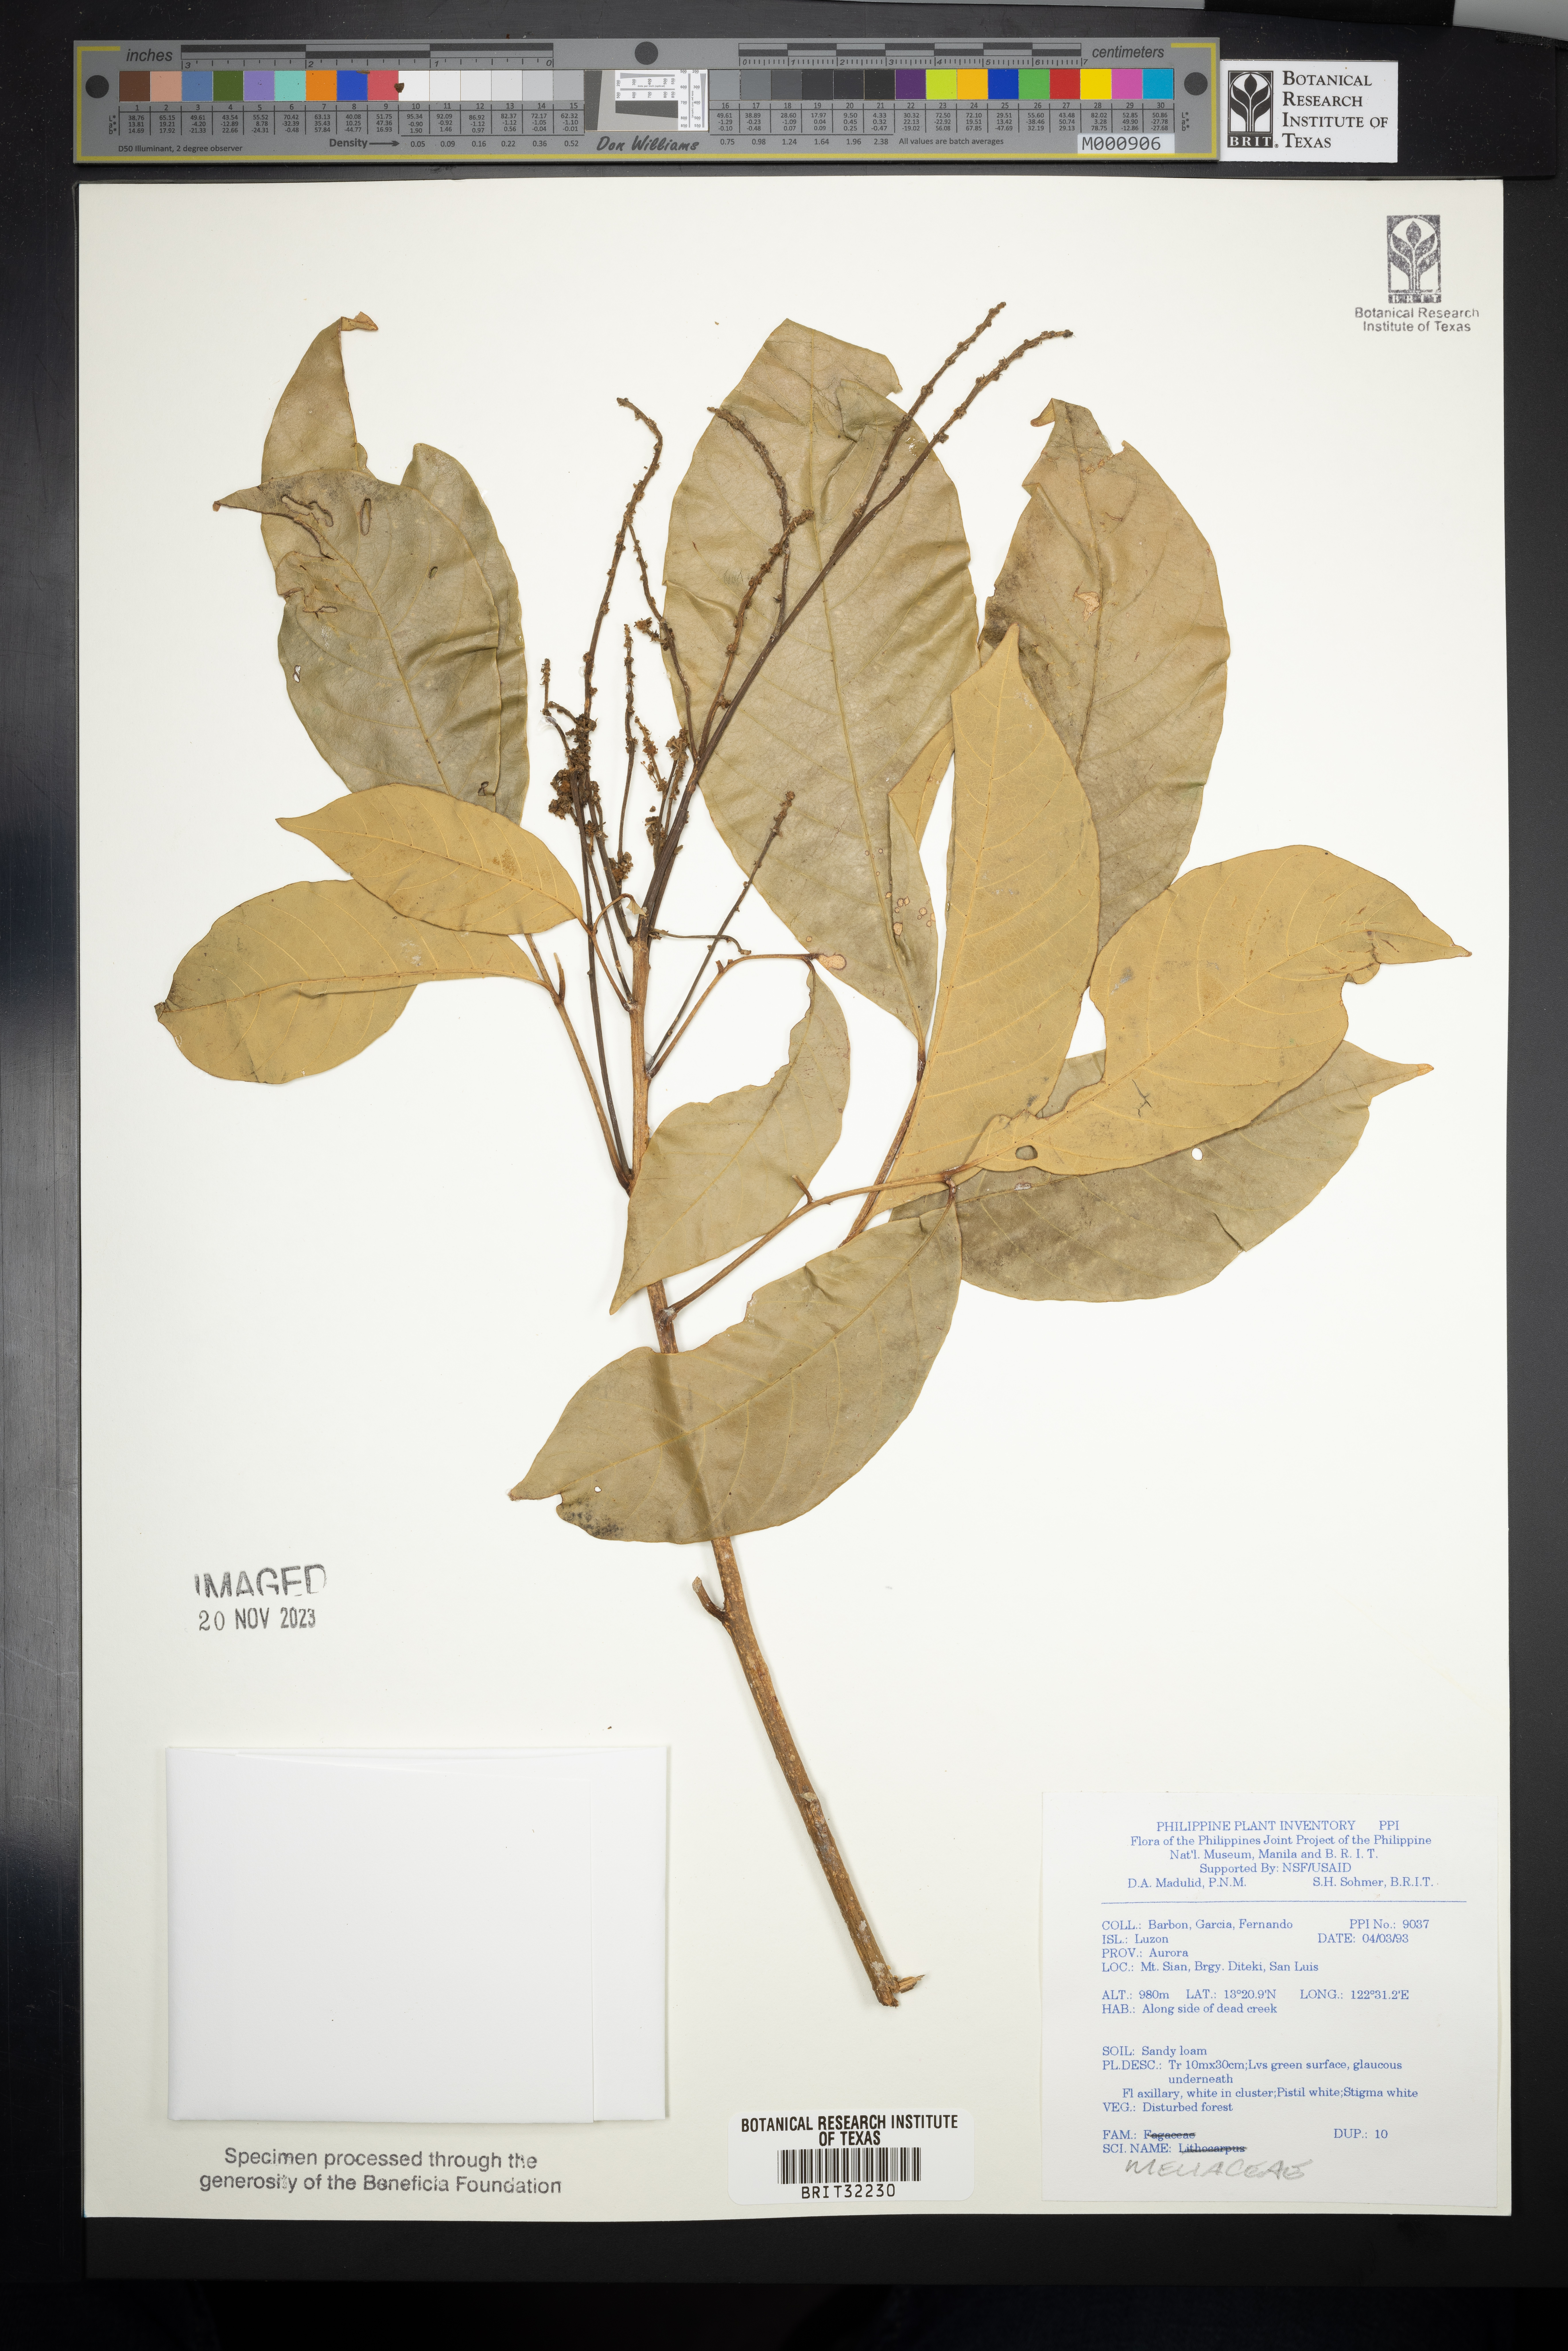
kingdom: Plantae
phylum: Tracheophyta
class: Magnoliopsida
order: Sapindales
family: Meliaceae
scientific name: Meliaceae
